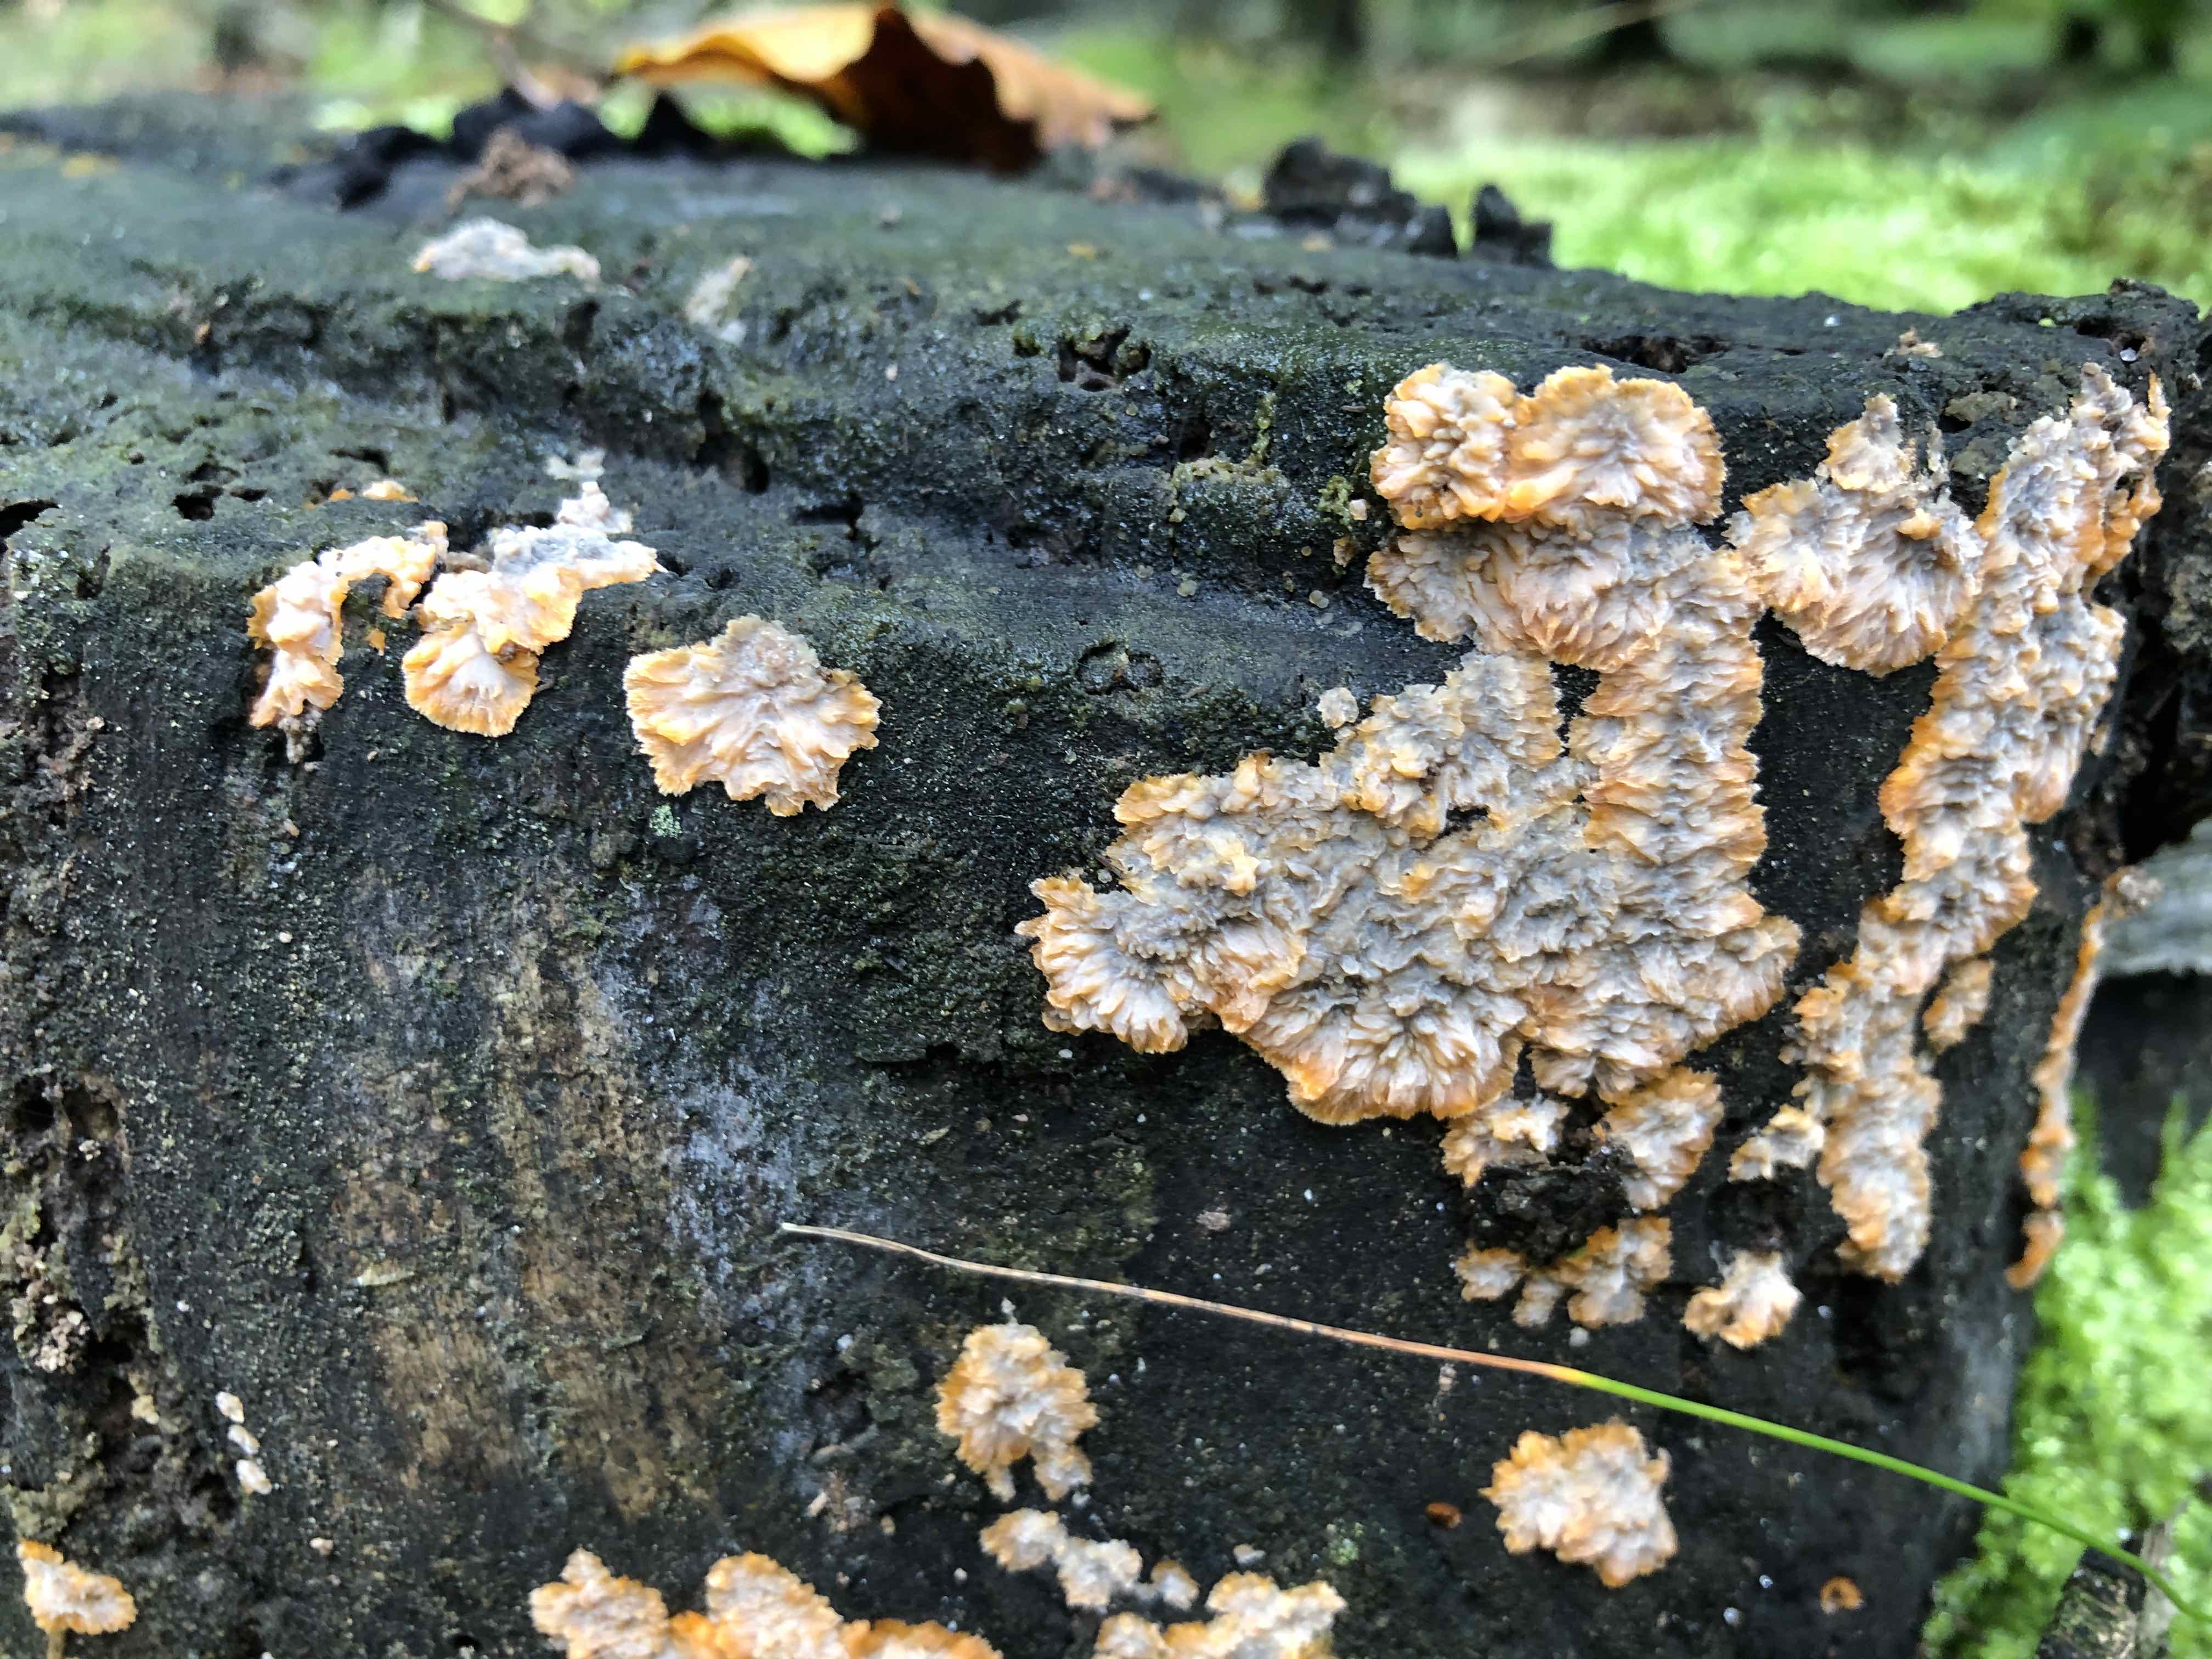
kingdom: Fungi
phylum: Basidiomycota
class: Agaricomycetes
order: Polyporales
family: Meruliaceae
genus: Phlebia
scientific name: Phlebia radiata
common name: stråle-åresvamp
